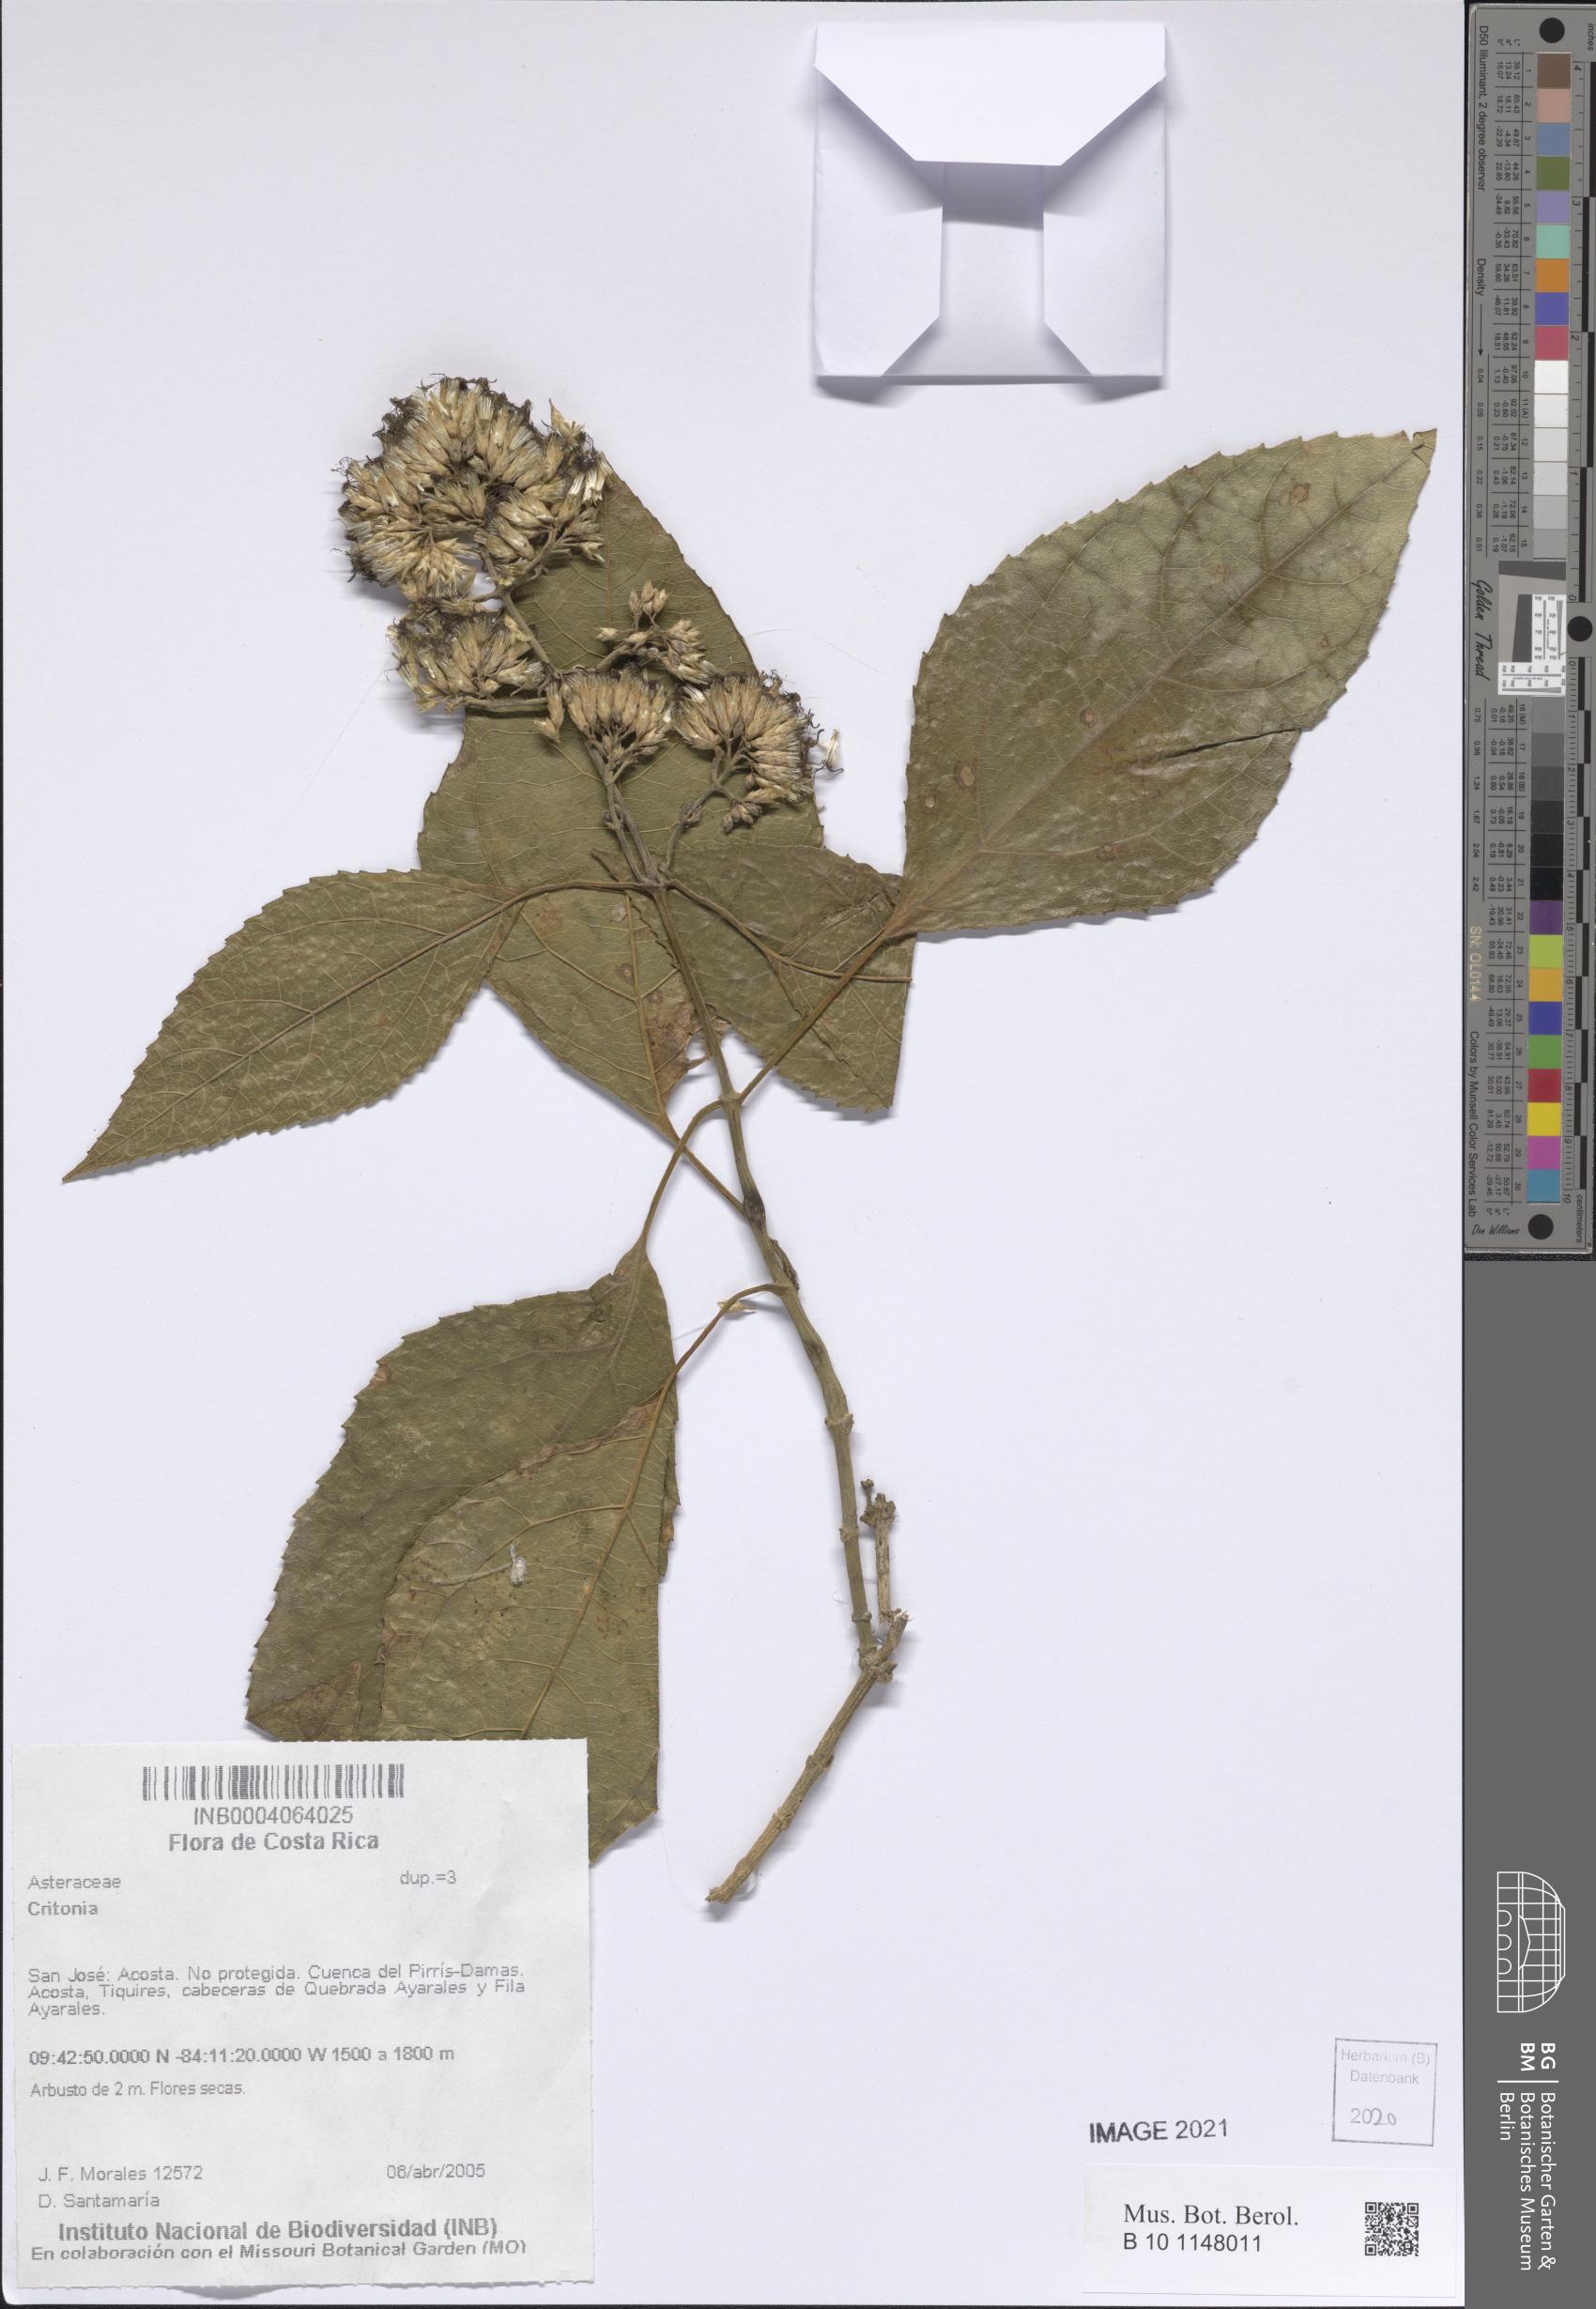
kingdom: Plantae
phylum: Tracheophyta
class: Magnoliopsida
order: Asterales
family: Asteraceae
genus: Critonia
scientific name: Critonia
